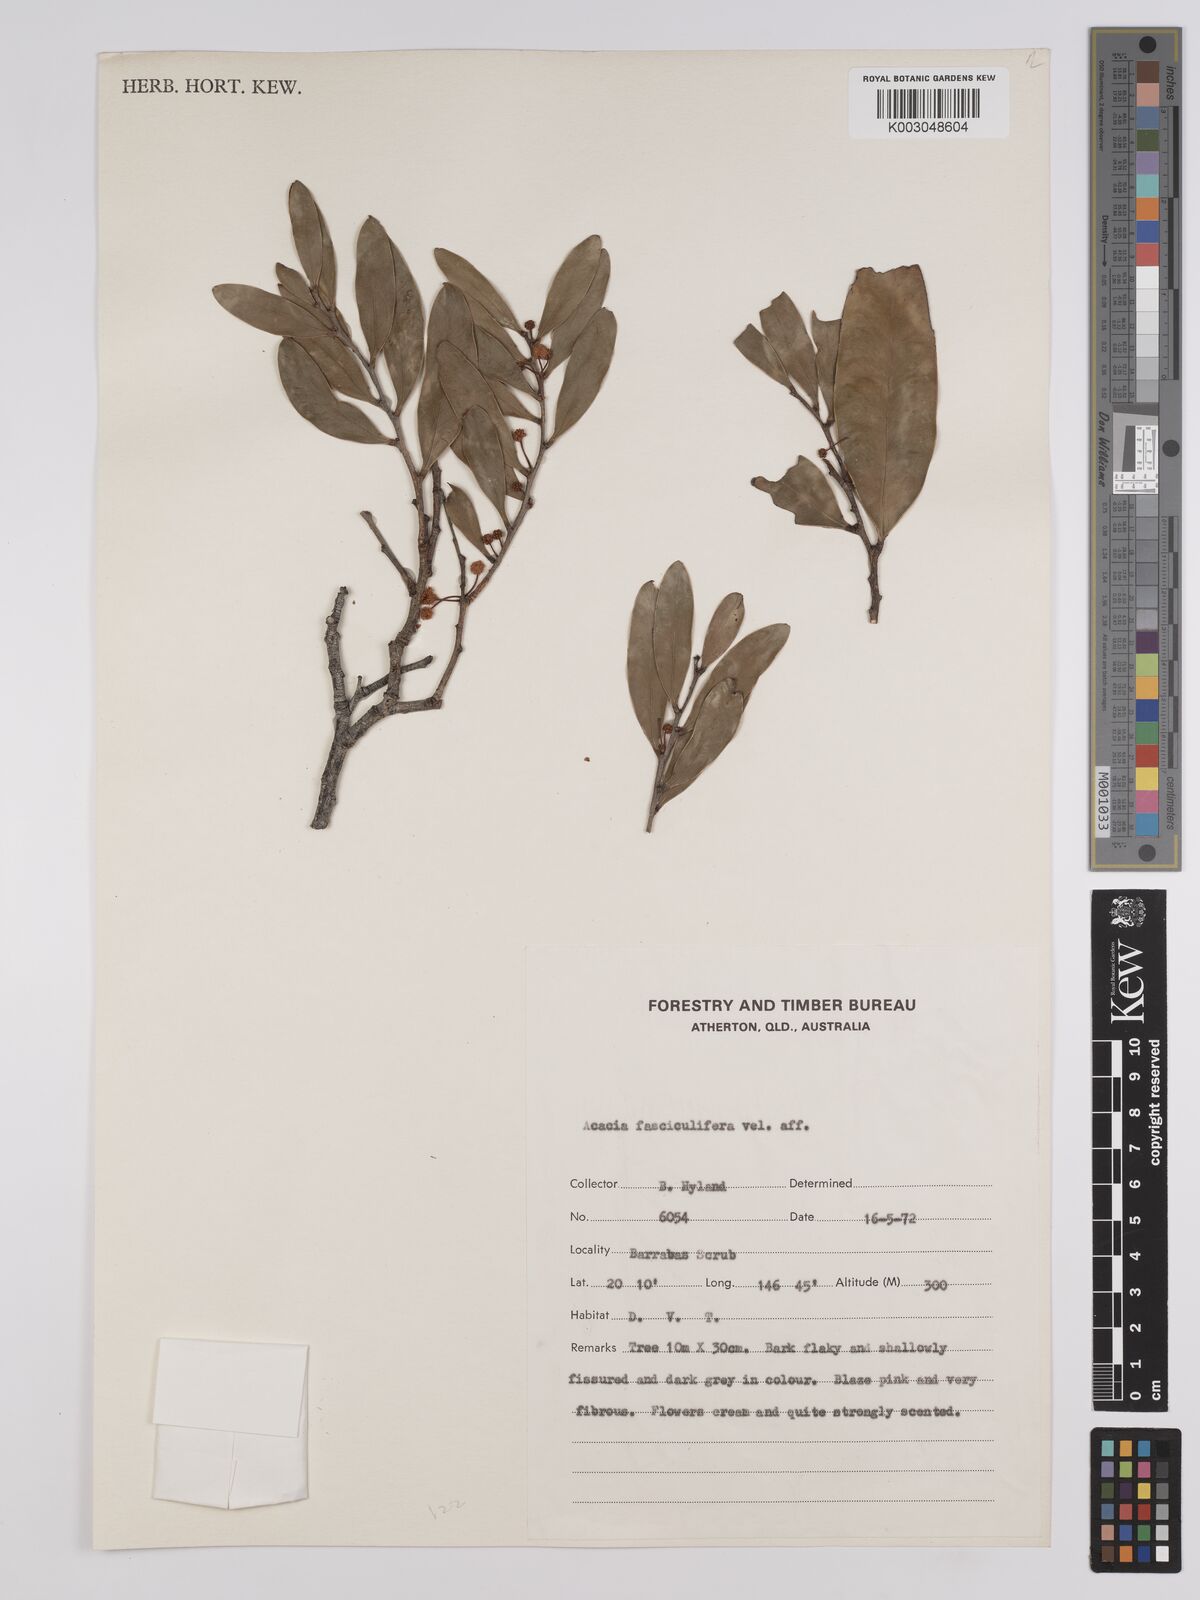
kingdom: Plantae
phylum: Tracheophyta
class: Magnoliopsida
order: Fabales
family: Fabaceae
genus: Acacia
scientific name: Acacia fasciculifera
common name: Scalybark
